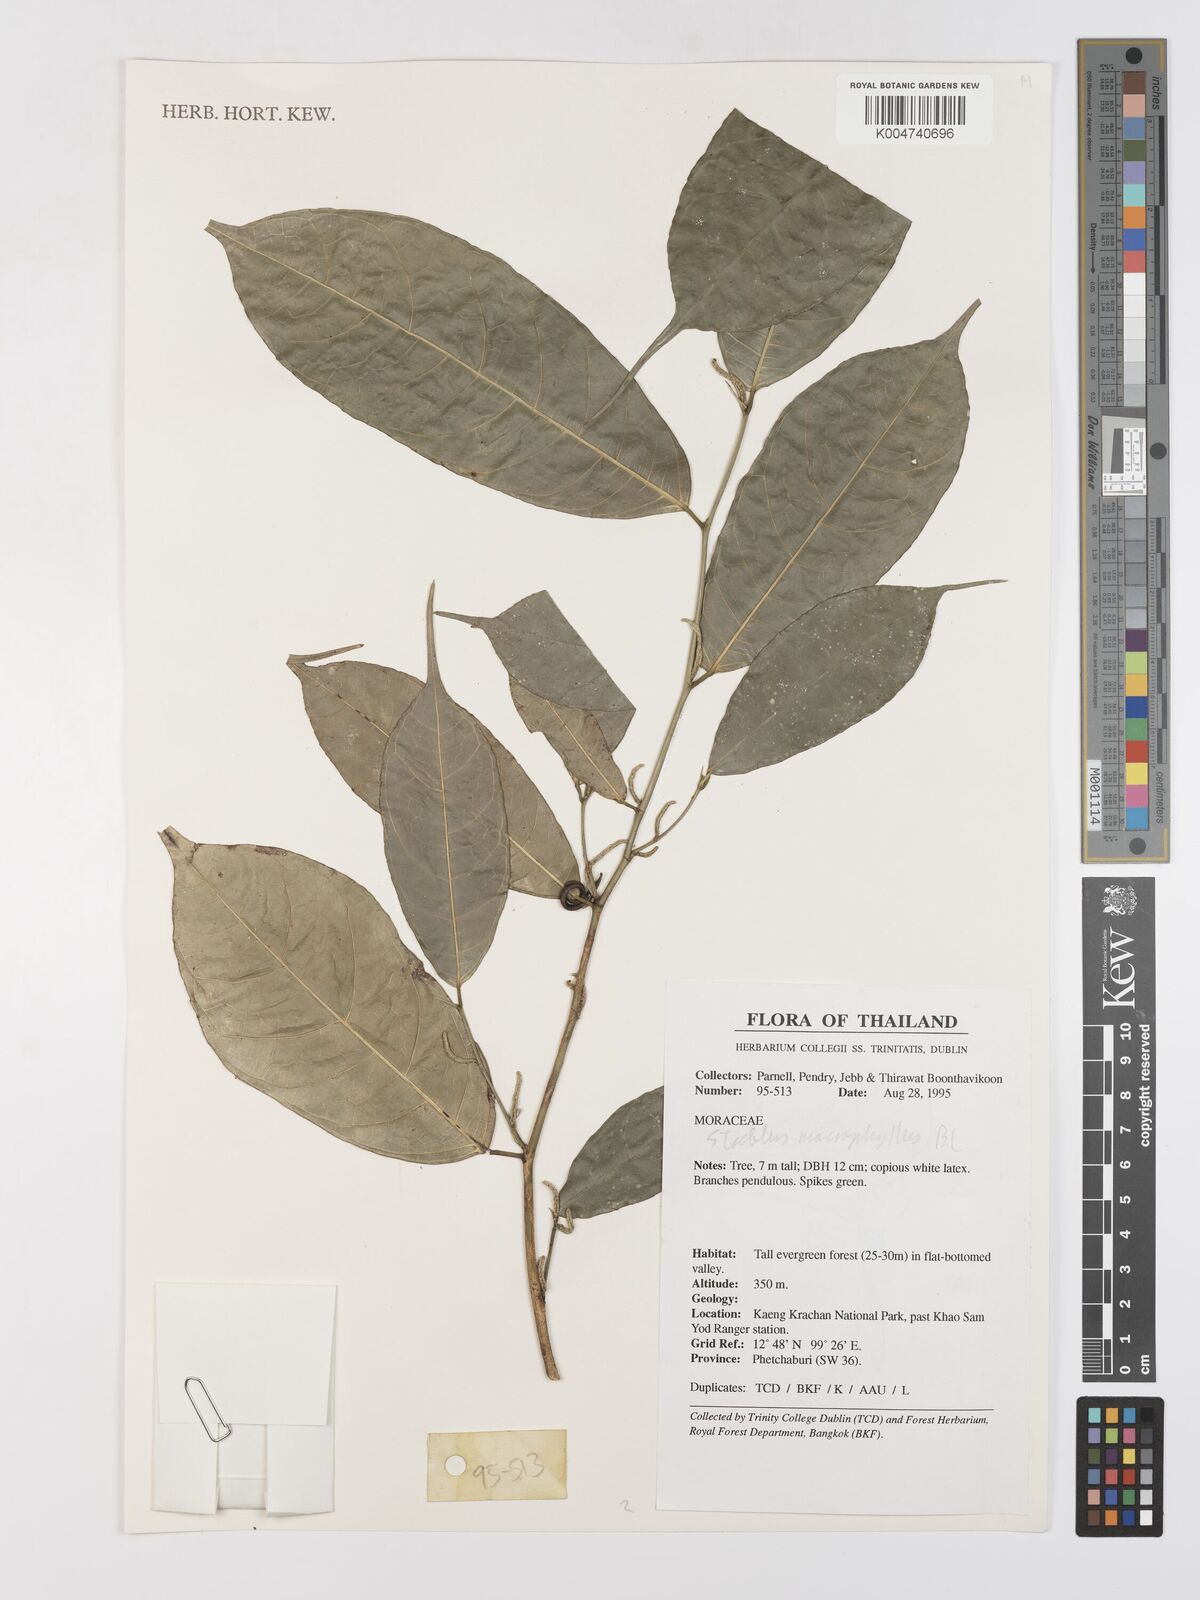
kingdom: Plantae
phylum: Tracheophyta
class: Magnoliopsida
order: Rosales
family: Moraceae
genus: Taxotrophis
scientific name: Taxotrophis macrophylla
